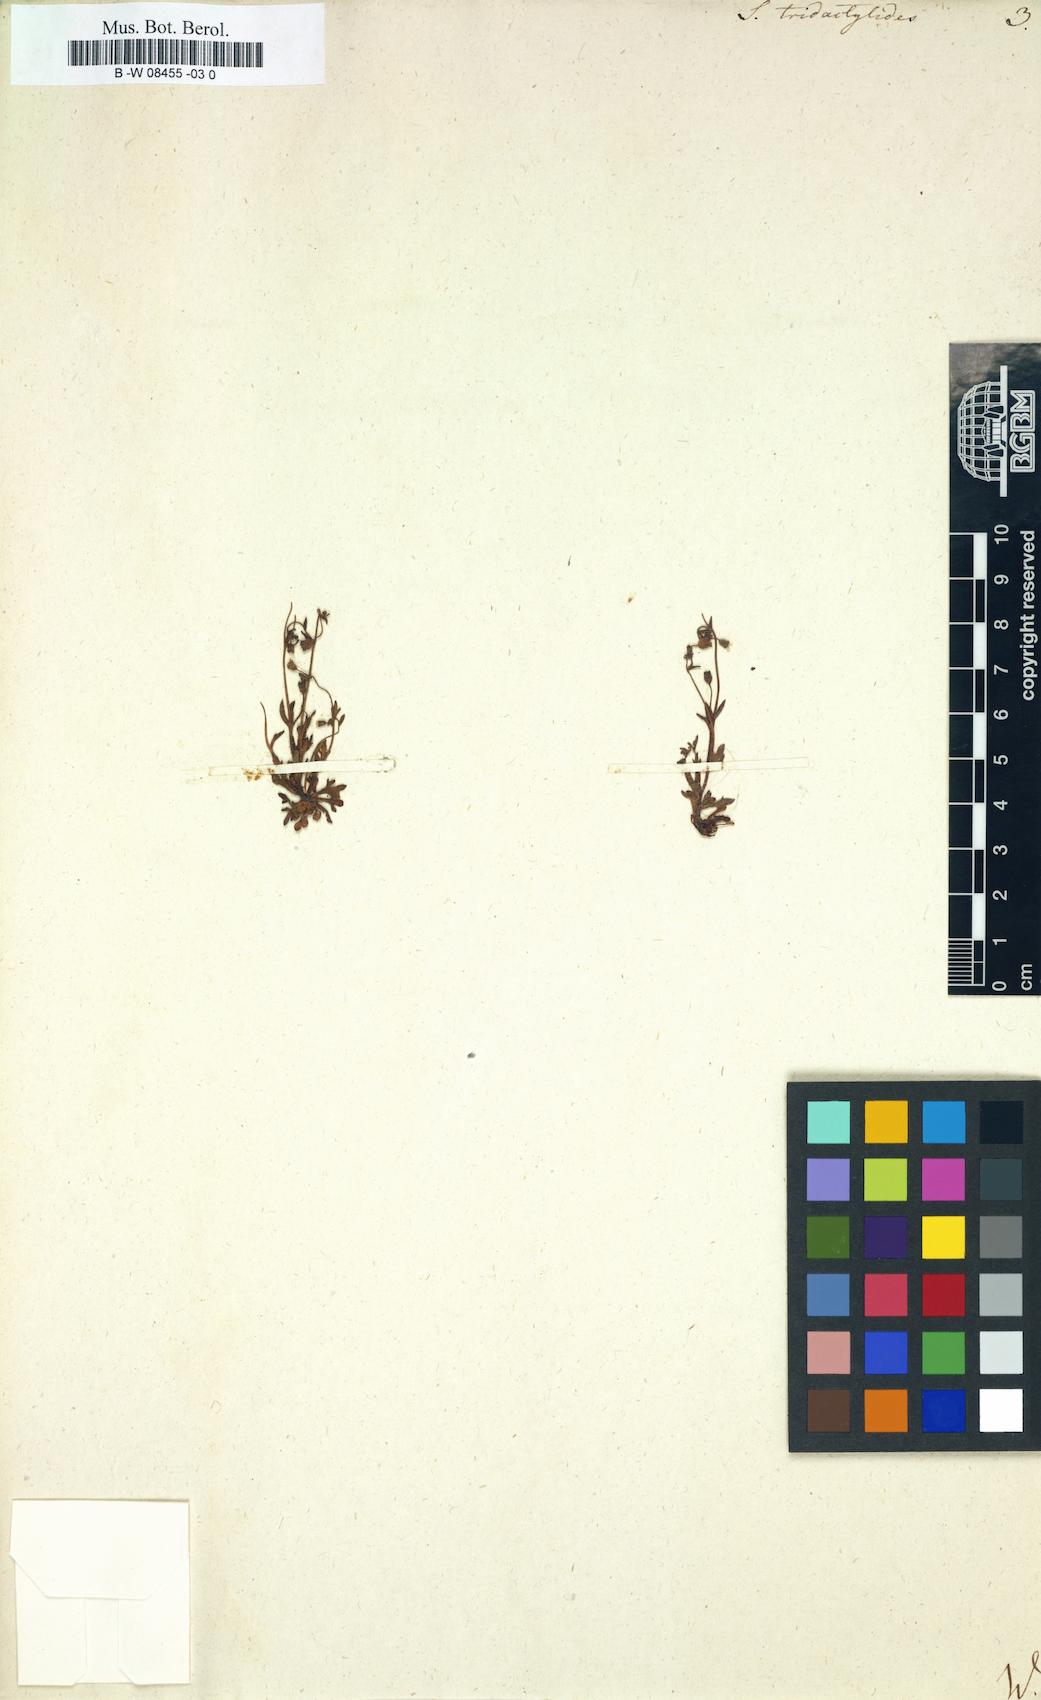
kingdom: Plantae
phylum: Tracheophyta
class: Magnoliopsida
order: Saxifragales
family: Saxifragaceae
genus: Saxifraga
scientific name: Saxifraga tridactylites
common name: Rue-leaved saxifrage
